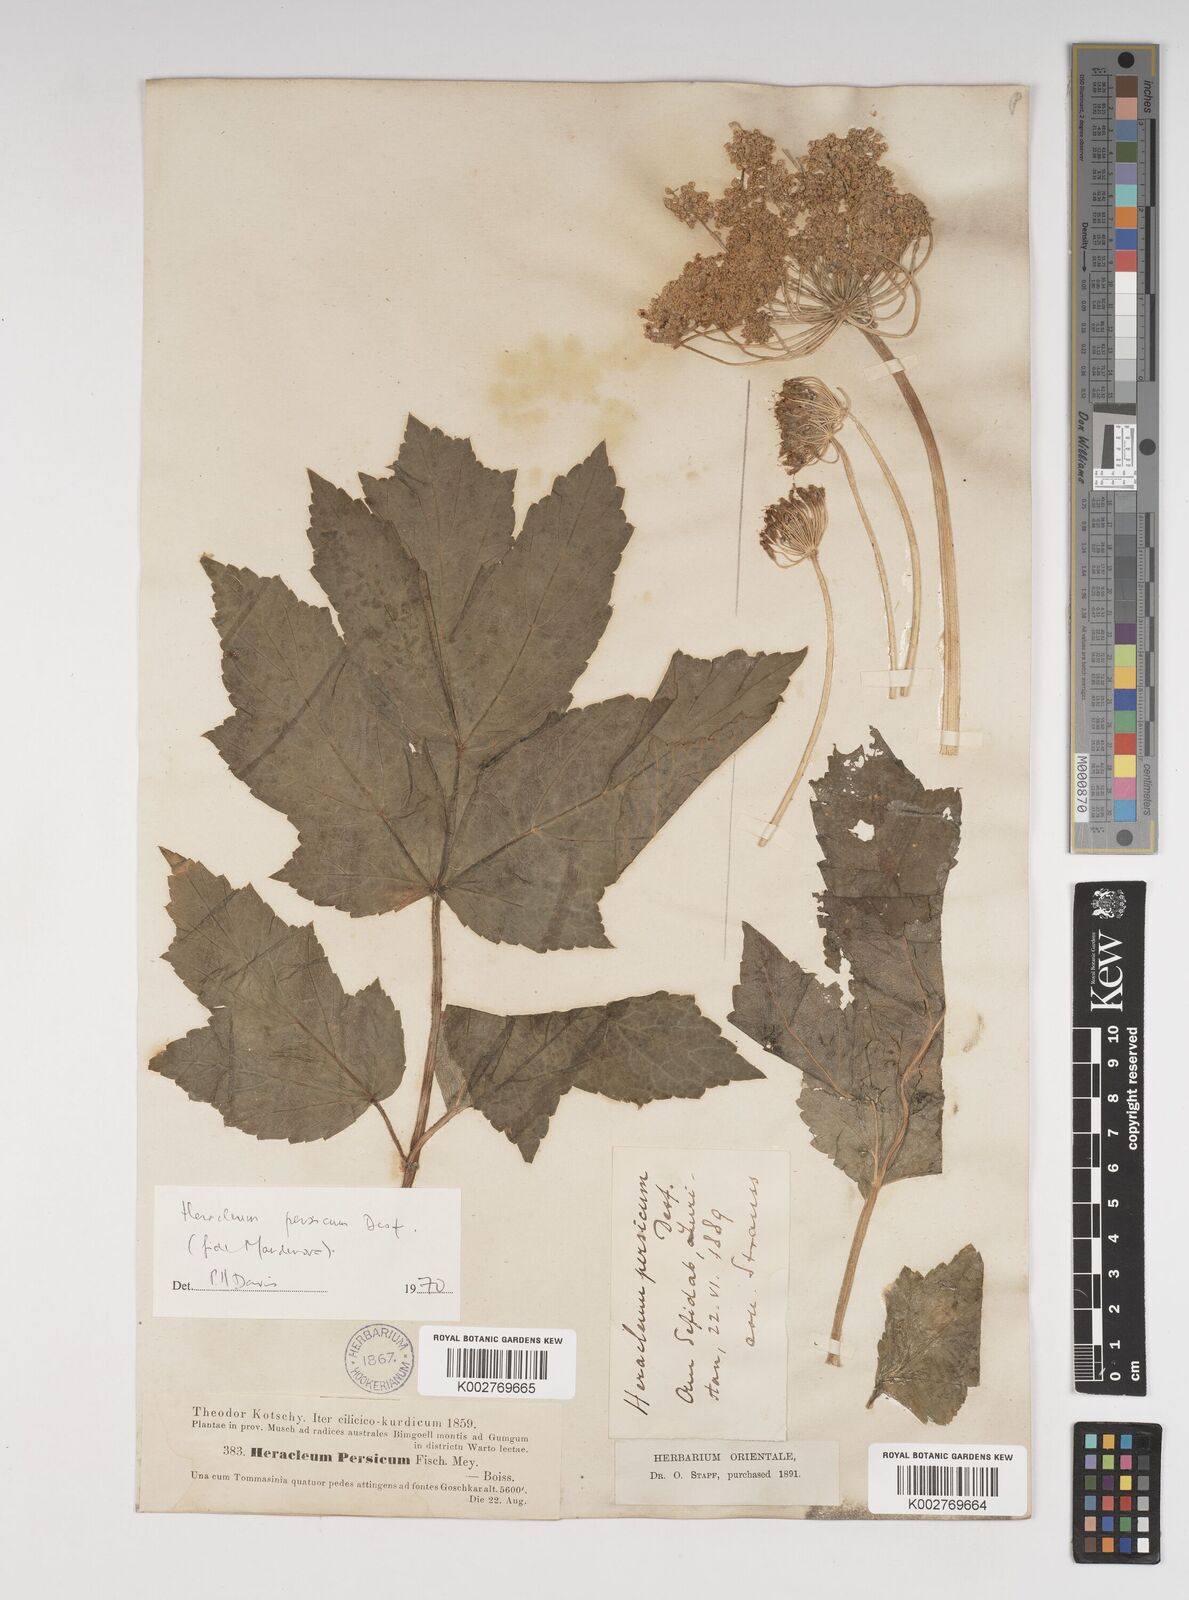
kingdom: Plantae
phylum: Tracheophyta
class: Magnoliopsida
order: Apiales
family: Apiaceae
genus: Heracleum
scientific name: Heracleum persicum
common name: Persian hogweed
